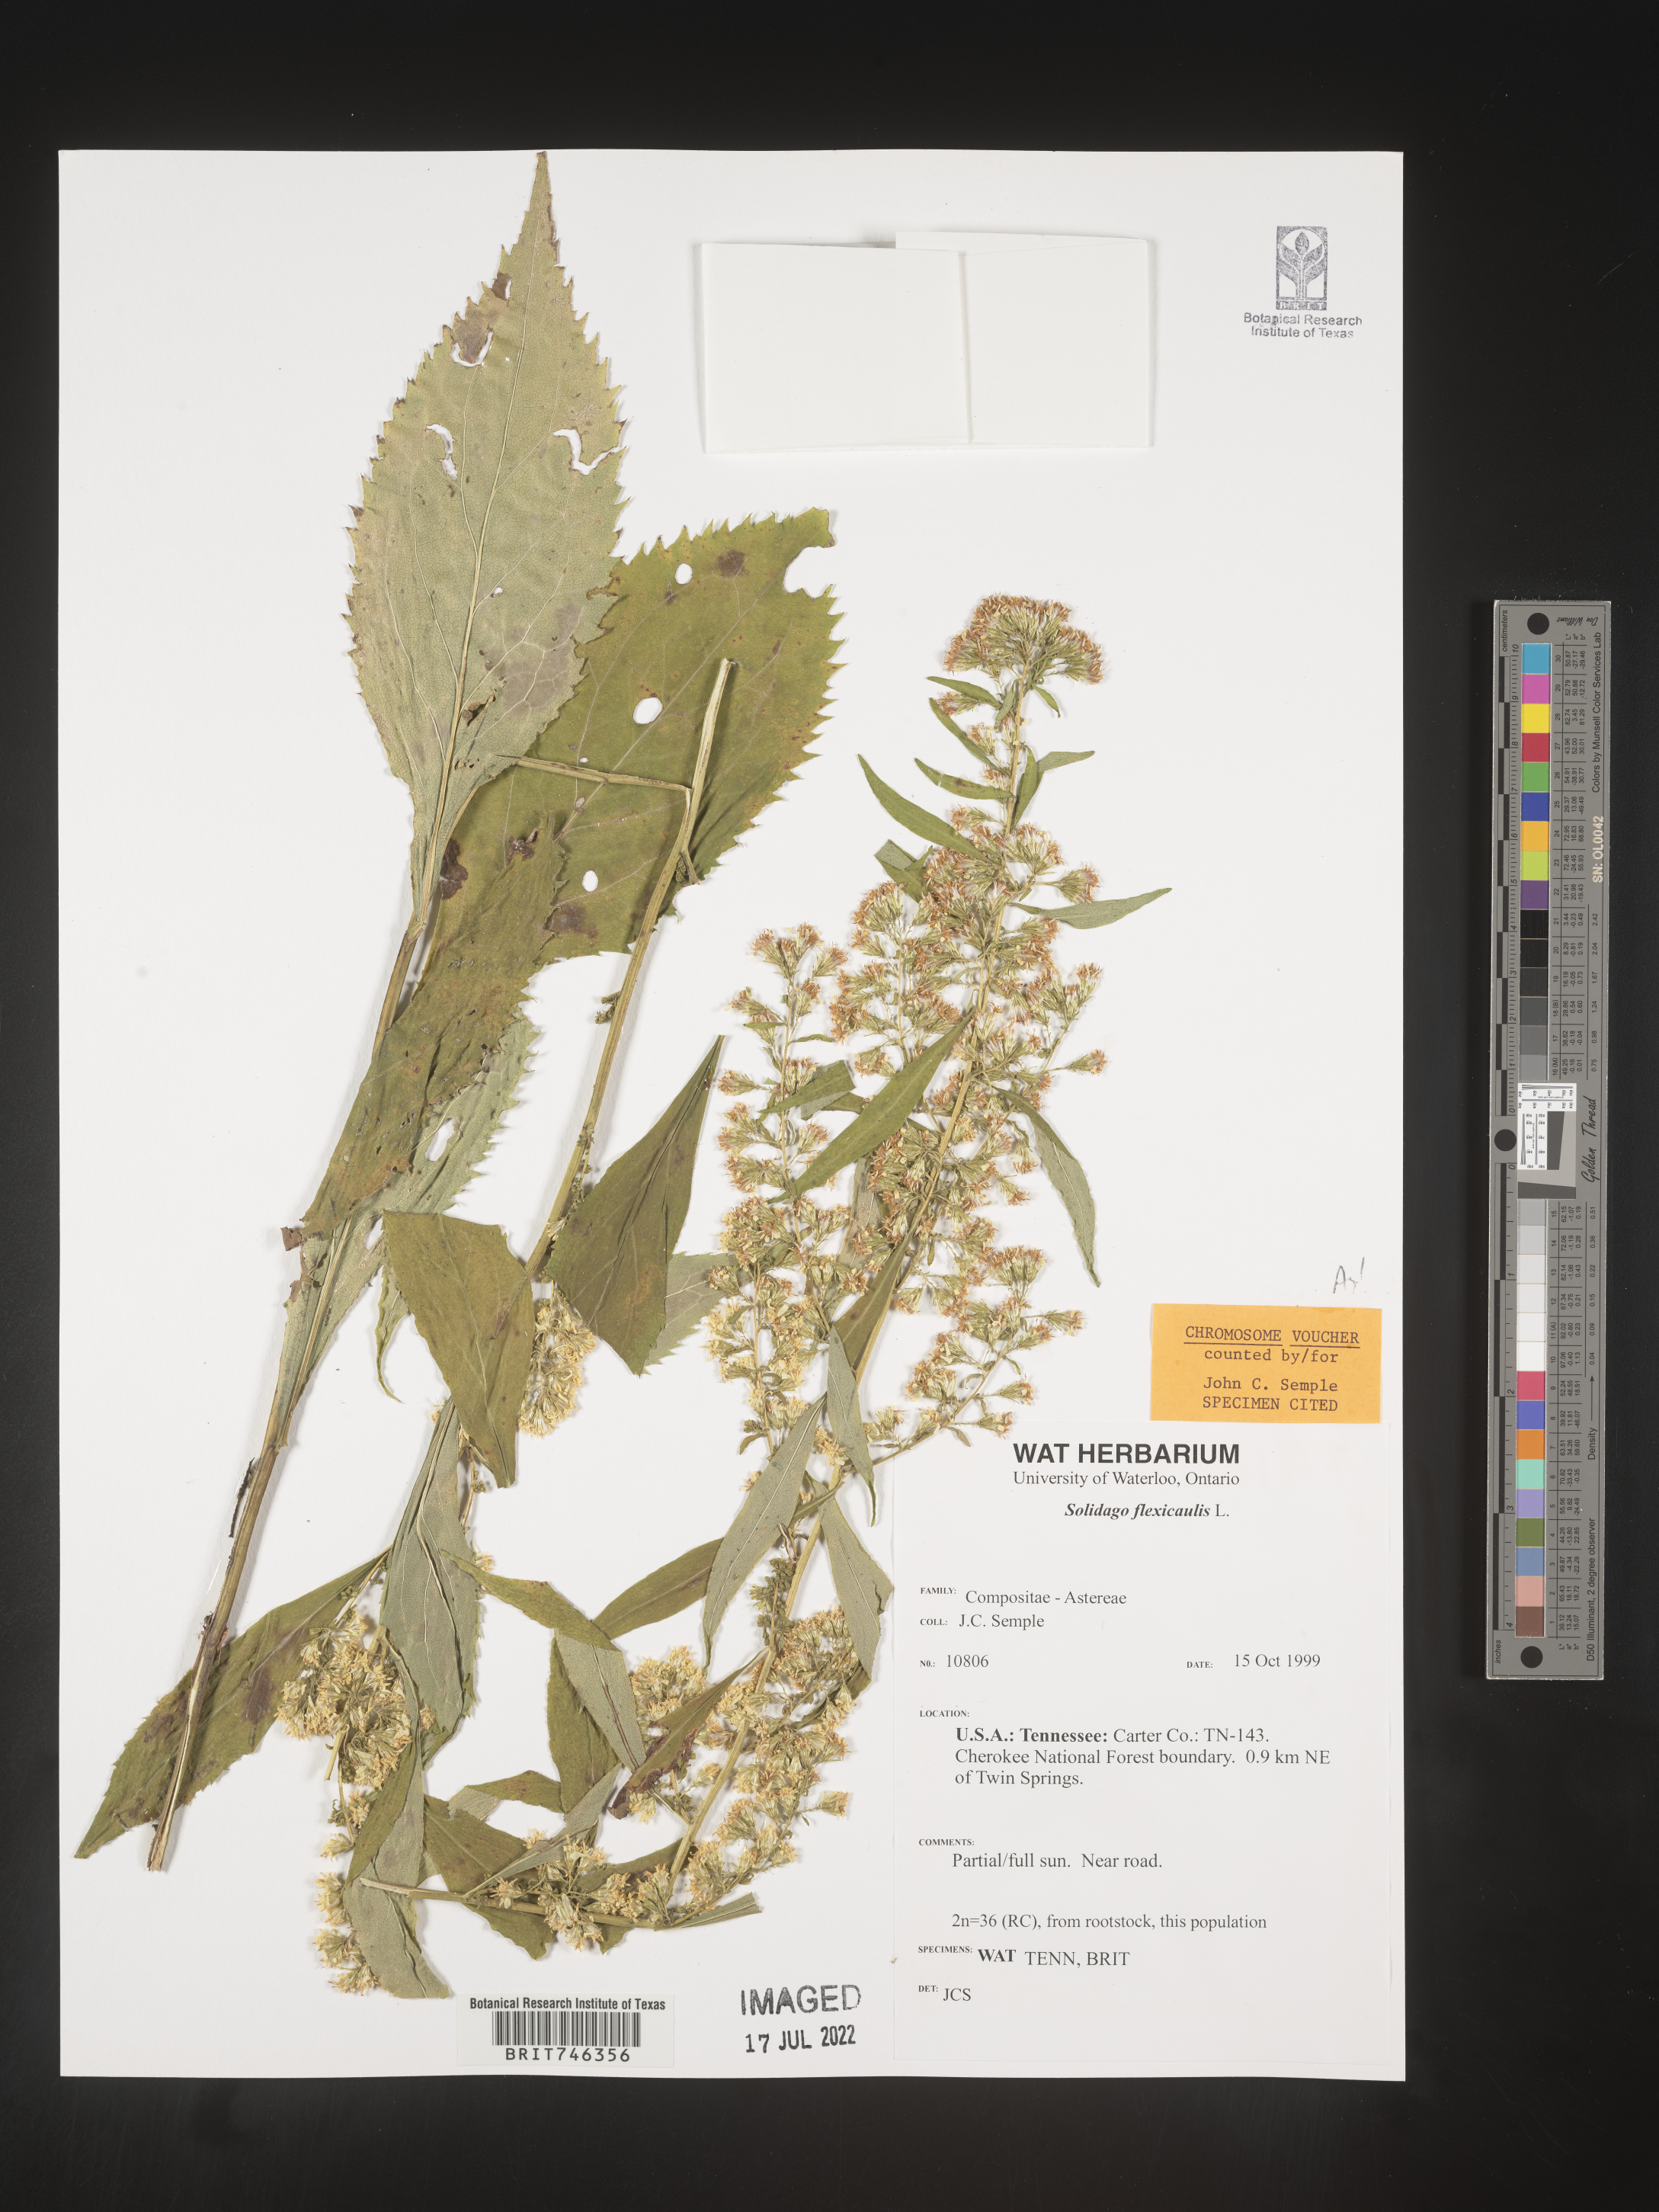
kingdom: Plantae
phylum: Tracheophyta
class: Magnoliopsida
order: Asterales
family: Asteraceae
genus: Solidago
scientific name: Solidago flexicaulis
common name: Zig-zag goldenrod
